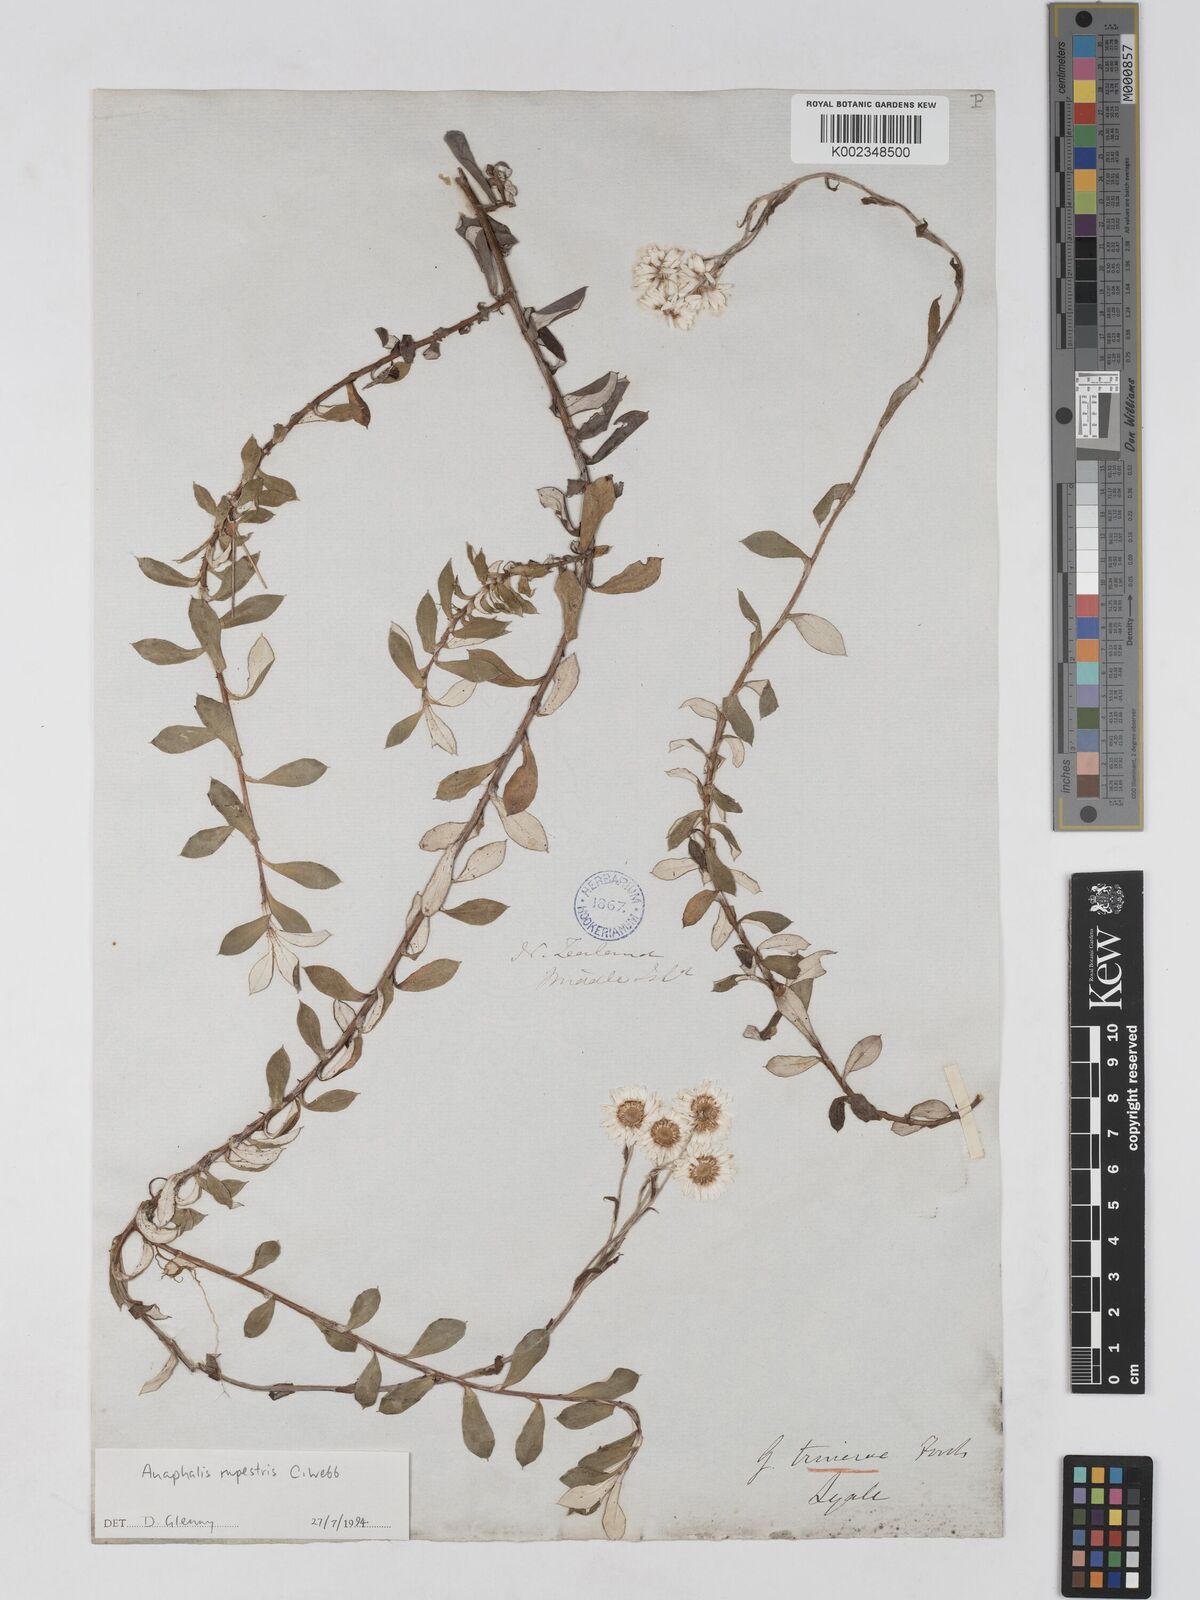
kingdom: Plantae
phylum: Tracheophyta
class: Magnoliopsida
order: Asterales
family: Asteraceae
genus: Anaphaloides
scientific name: Anaphaloides
